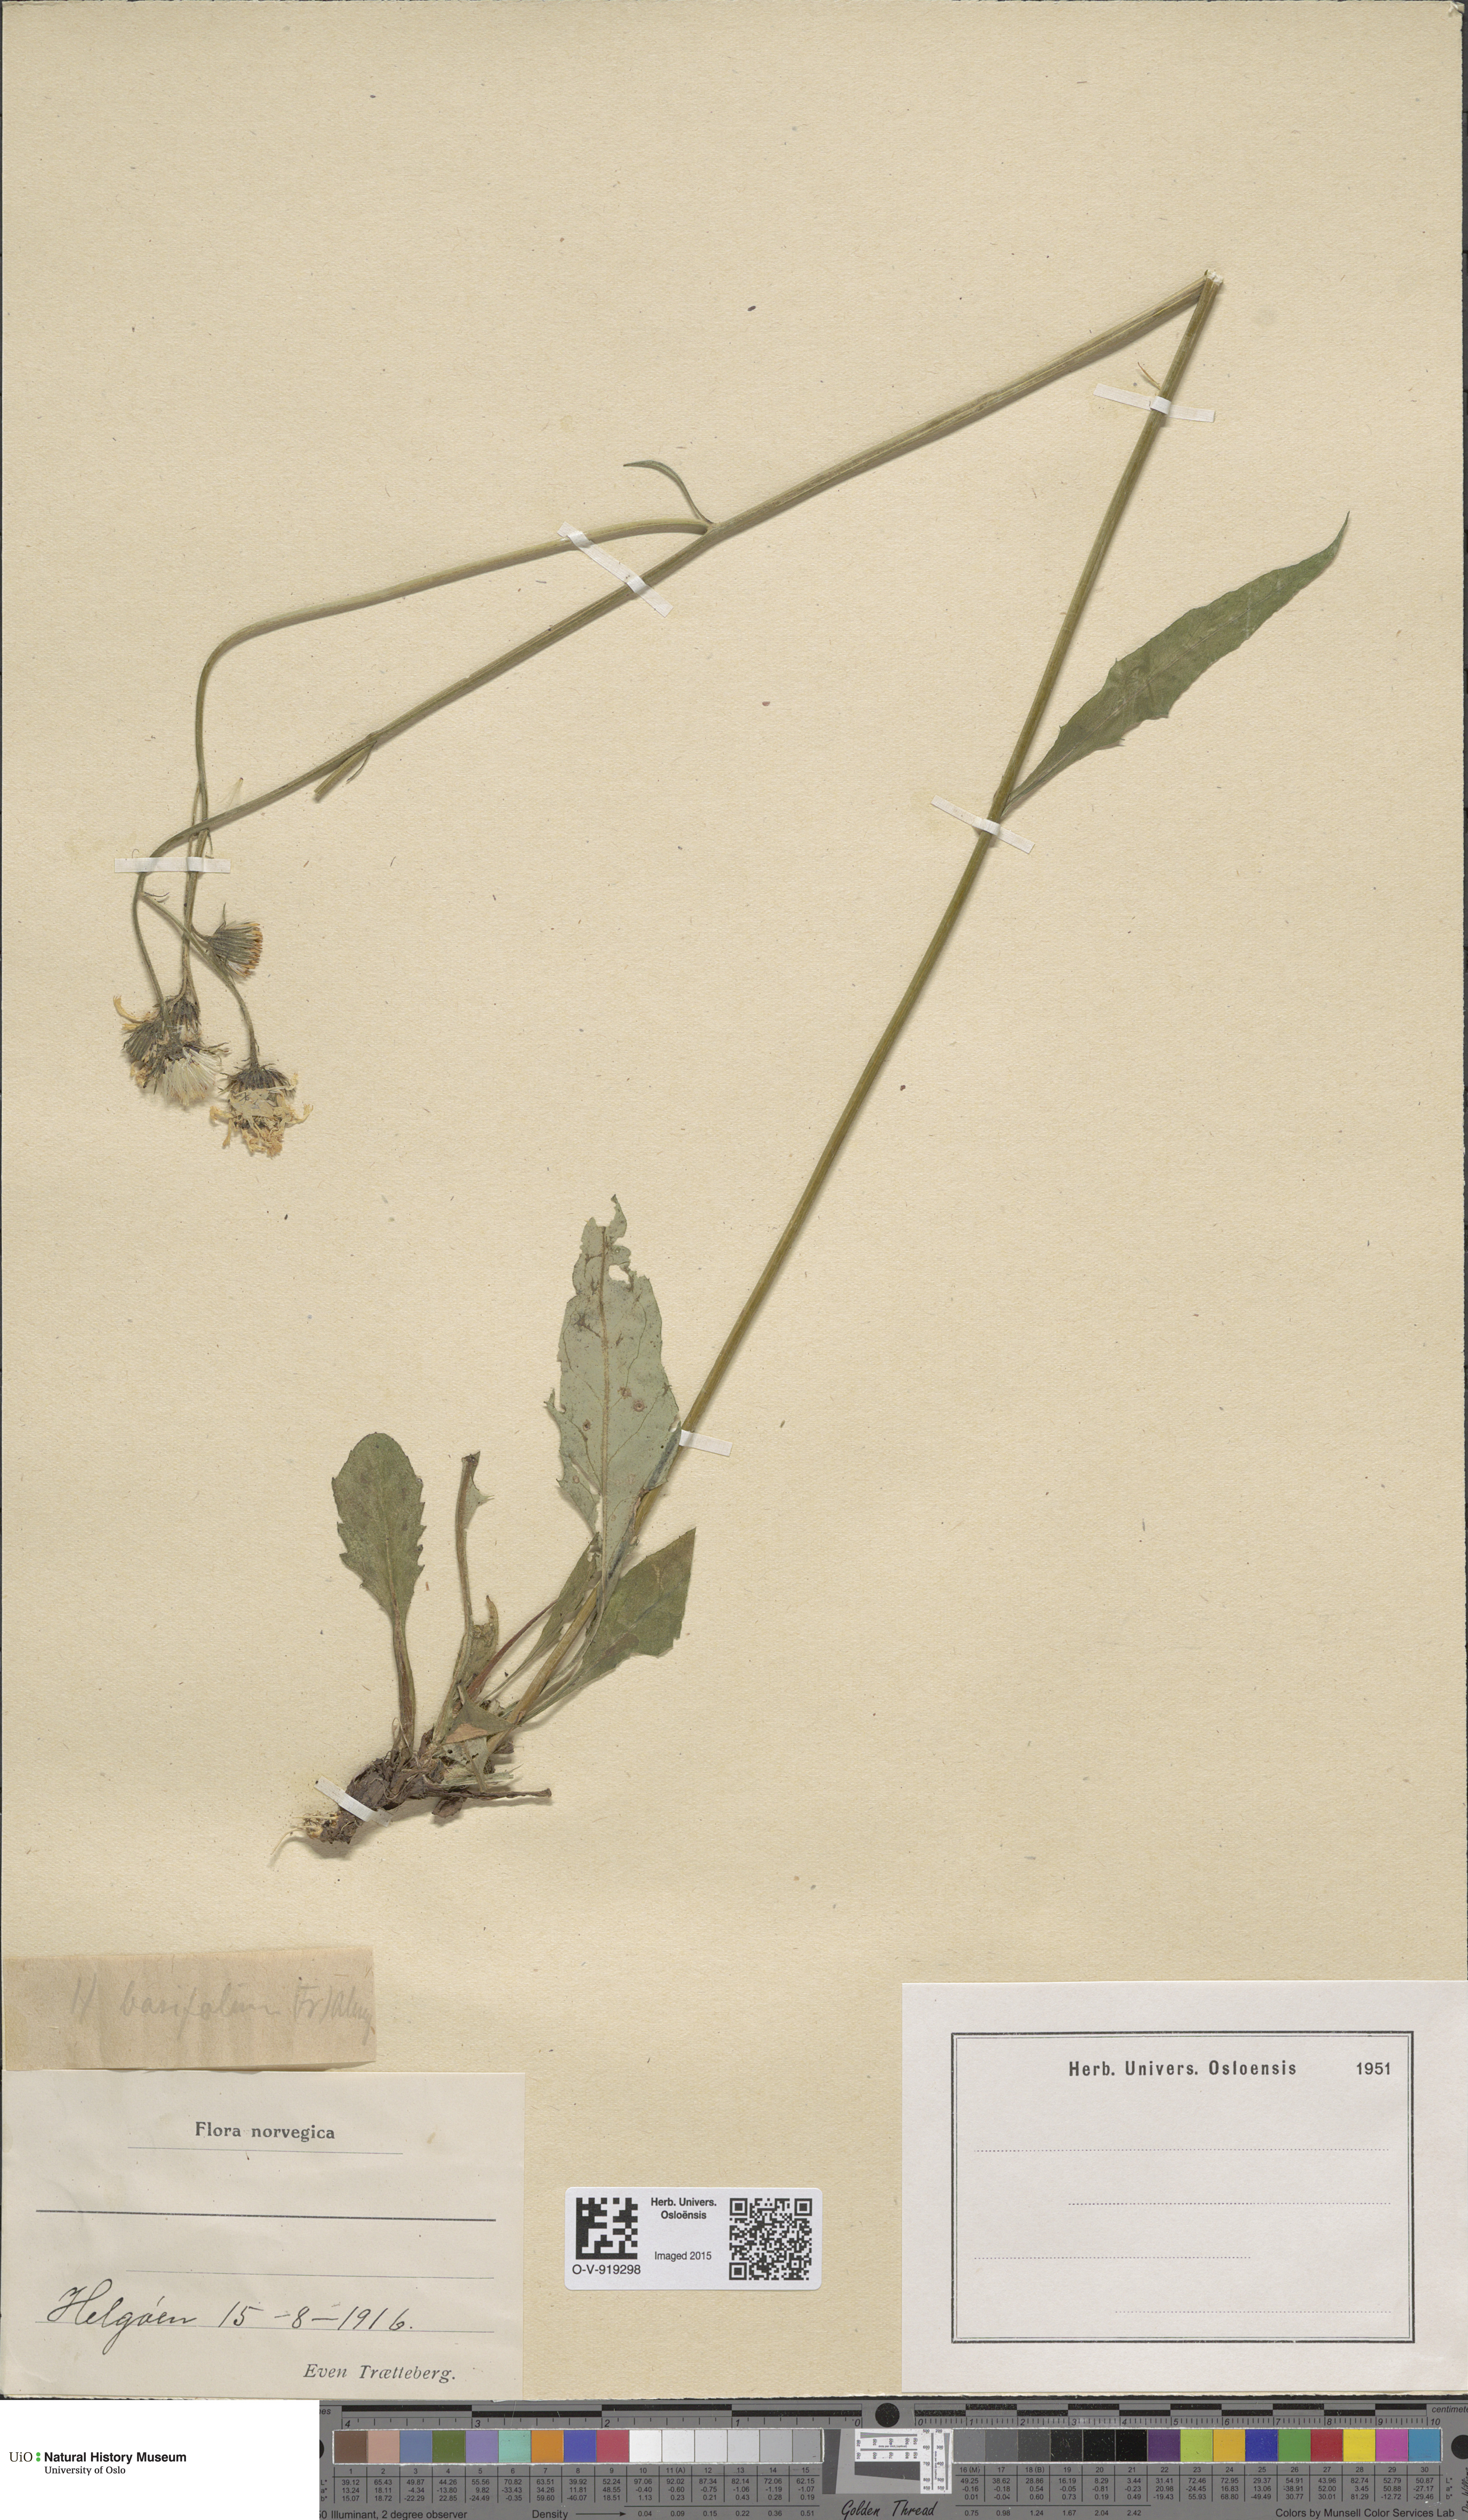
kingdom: Plantae
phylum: Tracheophyta
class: Magnoliopsida
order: Asterales
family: Asteraceae
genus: Hieracium
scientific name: Hieracium basifolium
